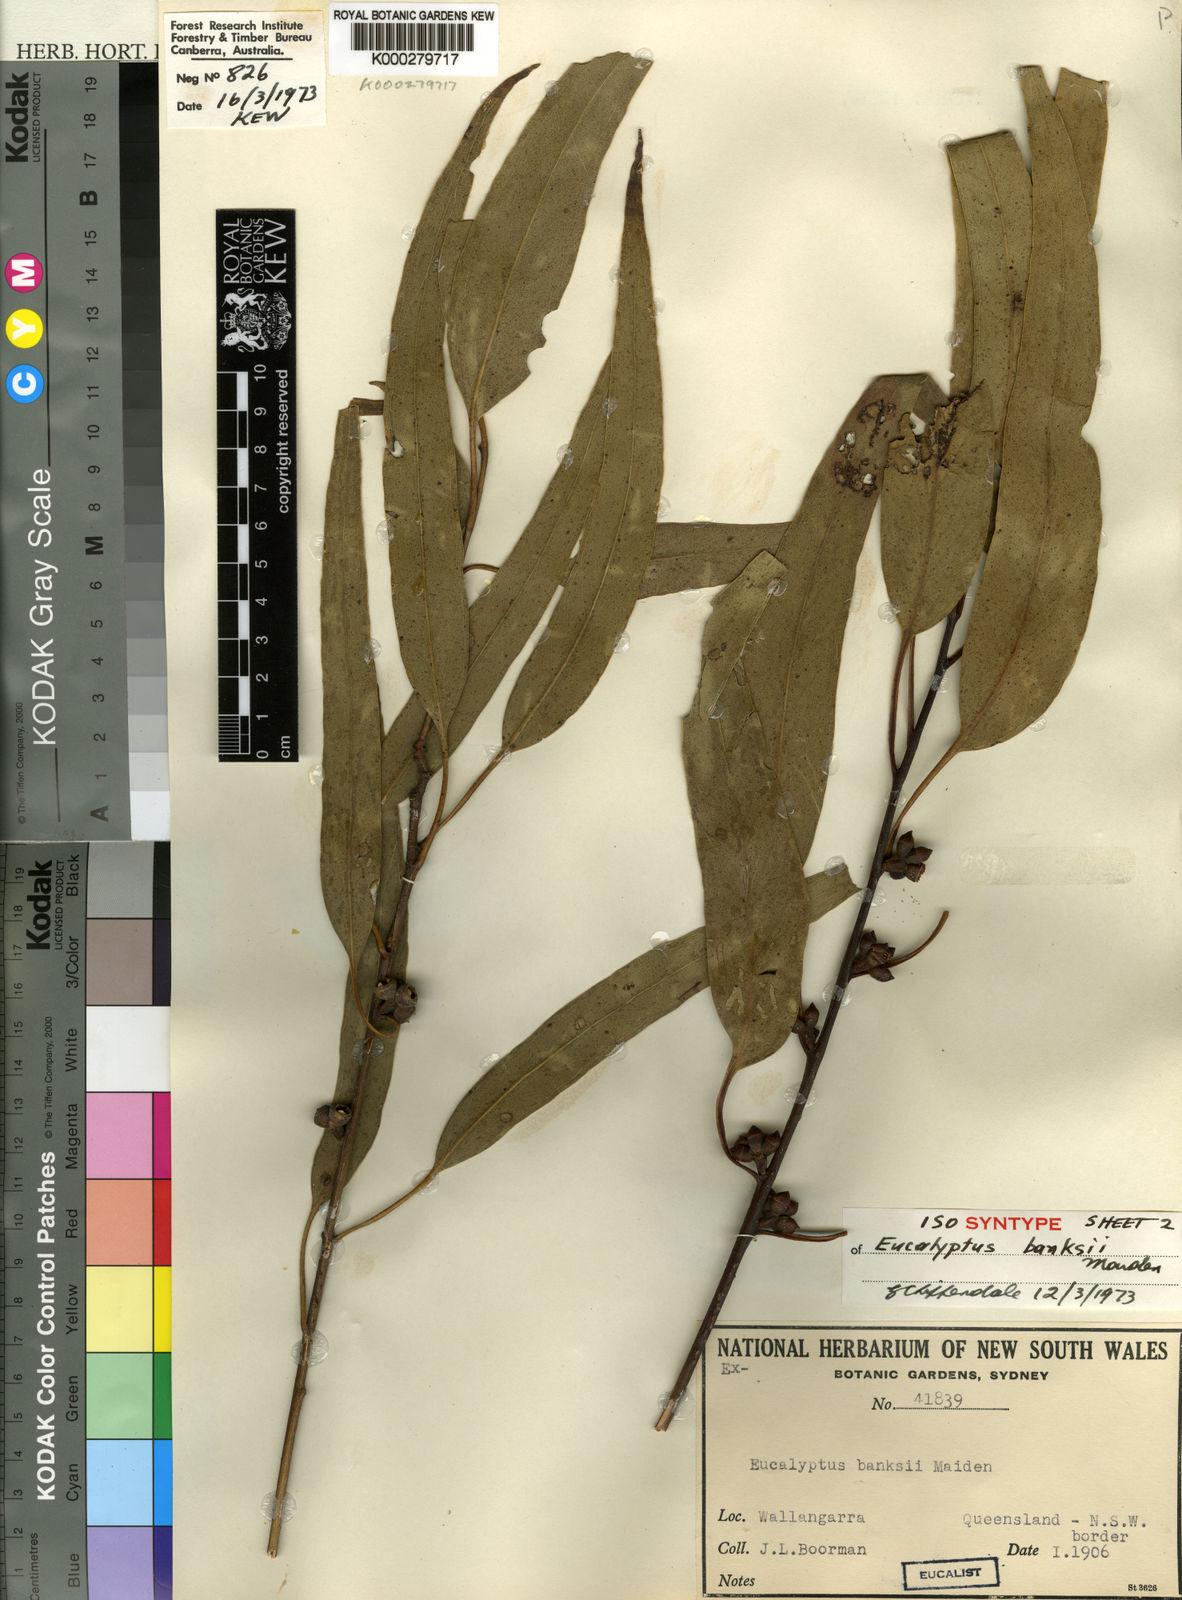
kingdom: Plantae
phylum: Tracheophyta
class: Magnoliopsida
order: Myrtales
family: Myrtaceae
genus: Eucalyptus
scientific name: Eucalyptus banksii
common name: Tenterfield woollybutt
